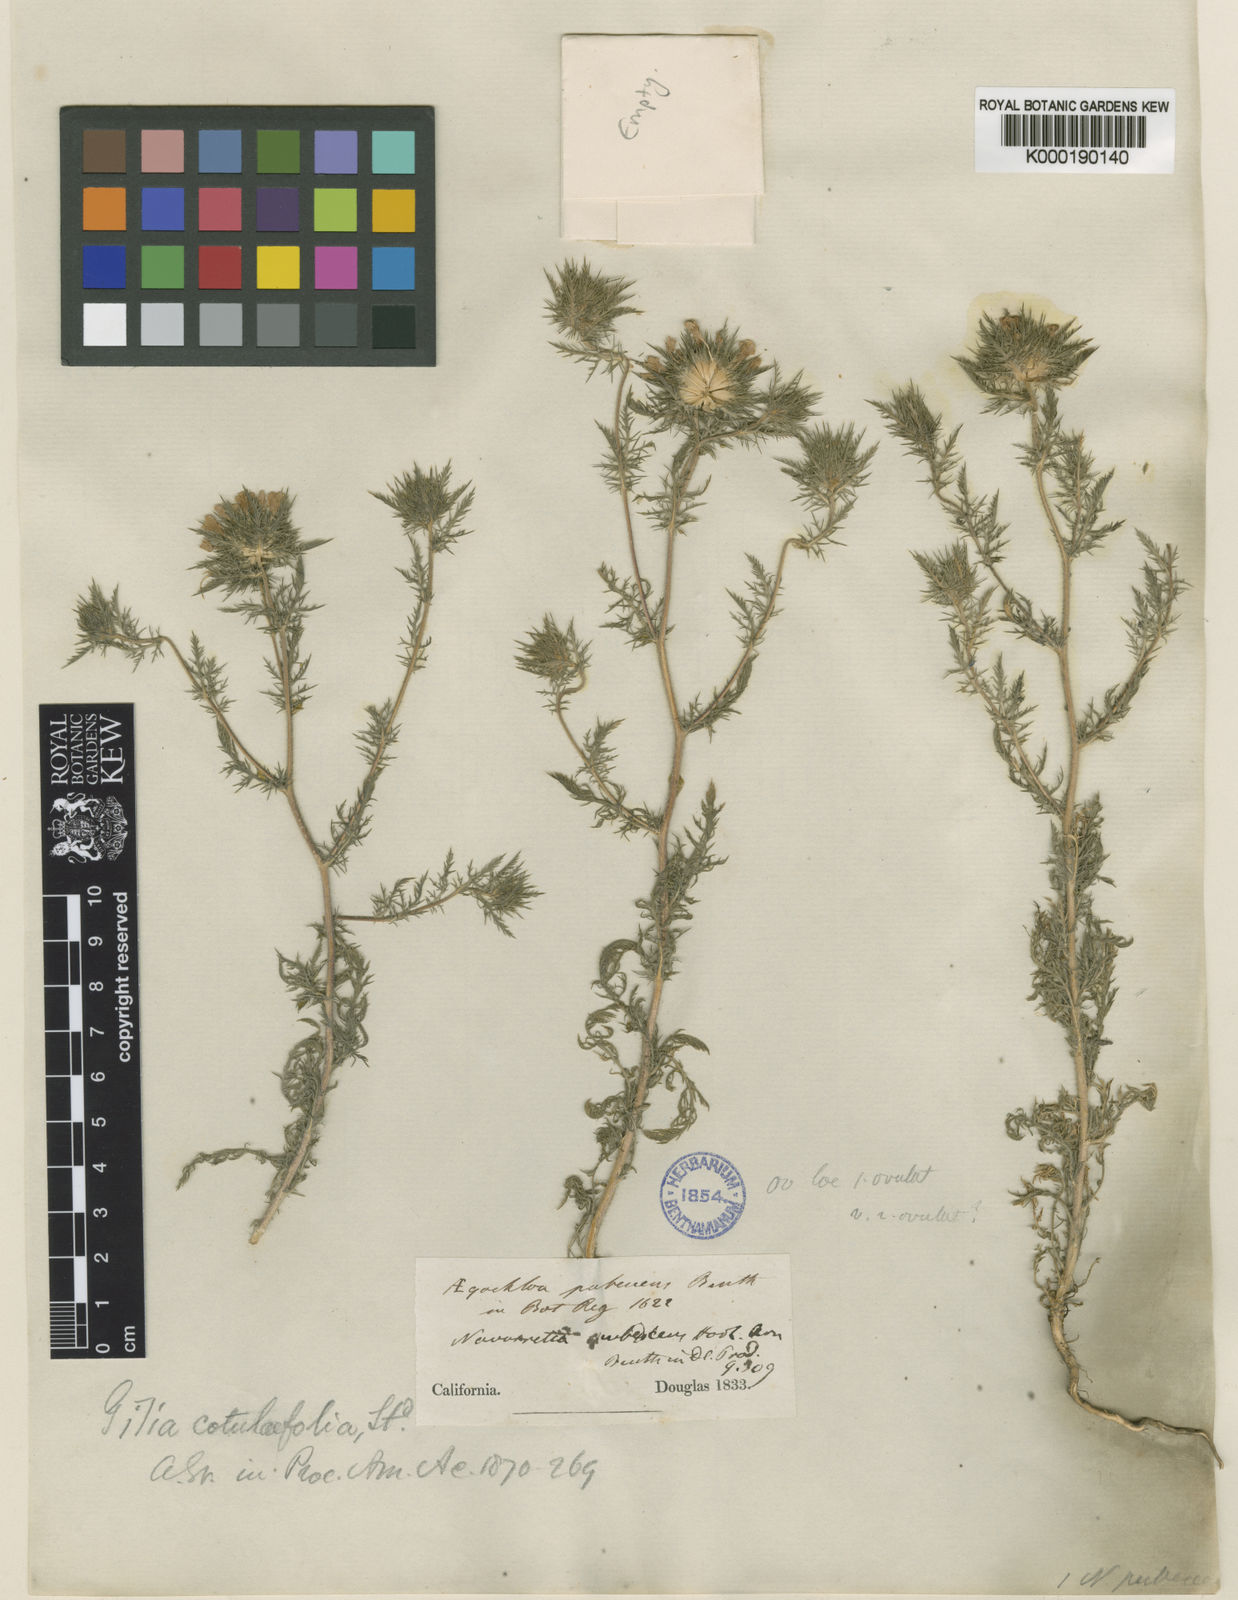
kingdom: Plantae
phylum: Tracheophyta
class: Magnoliopsida
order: Ericales
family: Polemoniaceae
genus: Navarretia
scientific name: Navarretia pubescens
